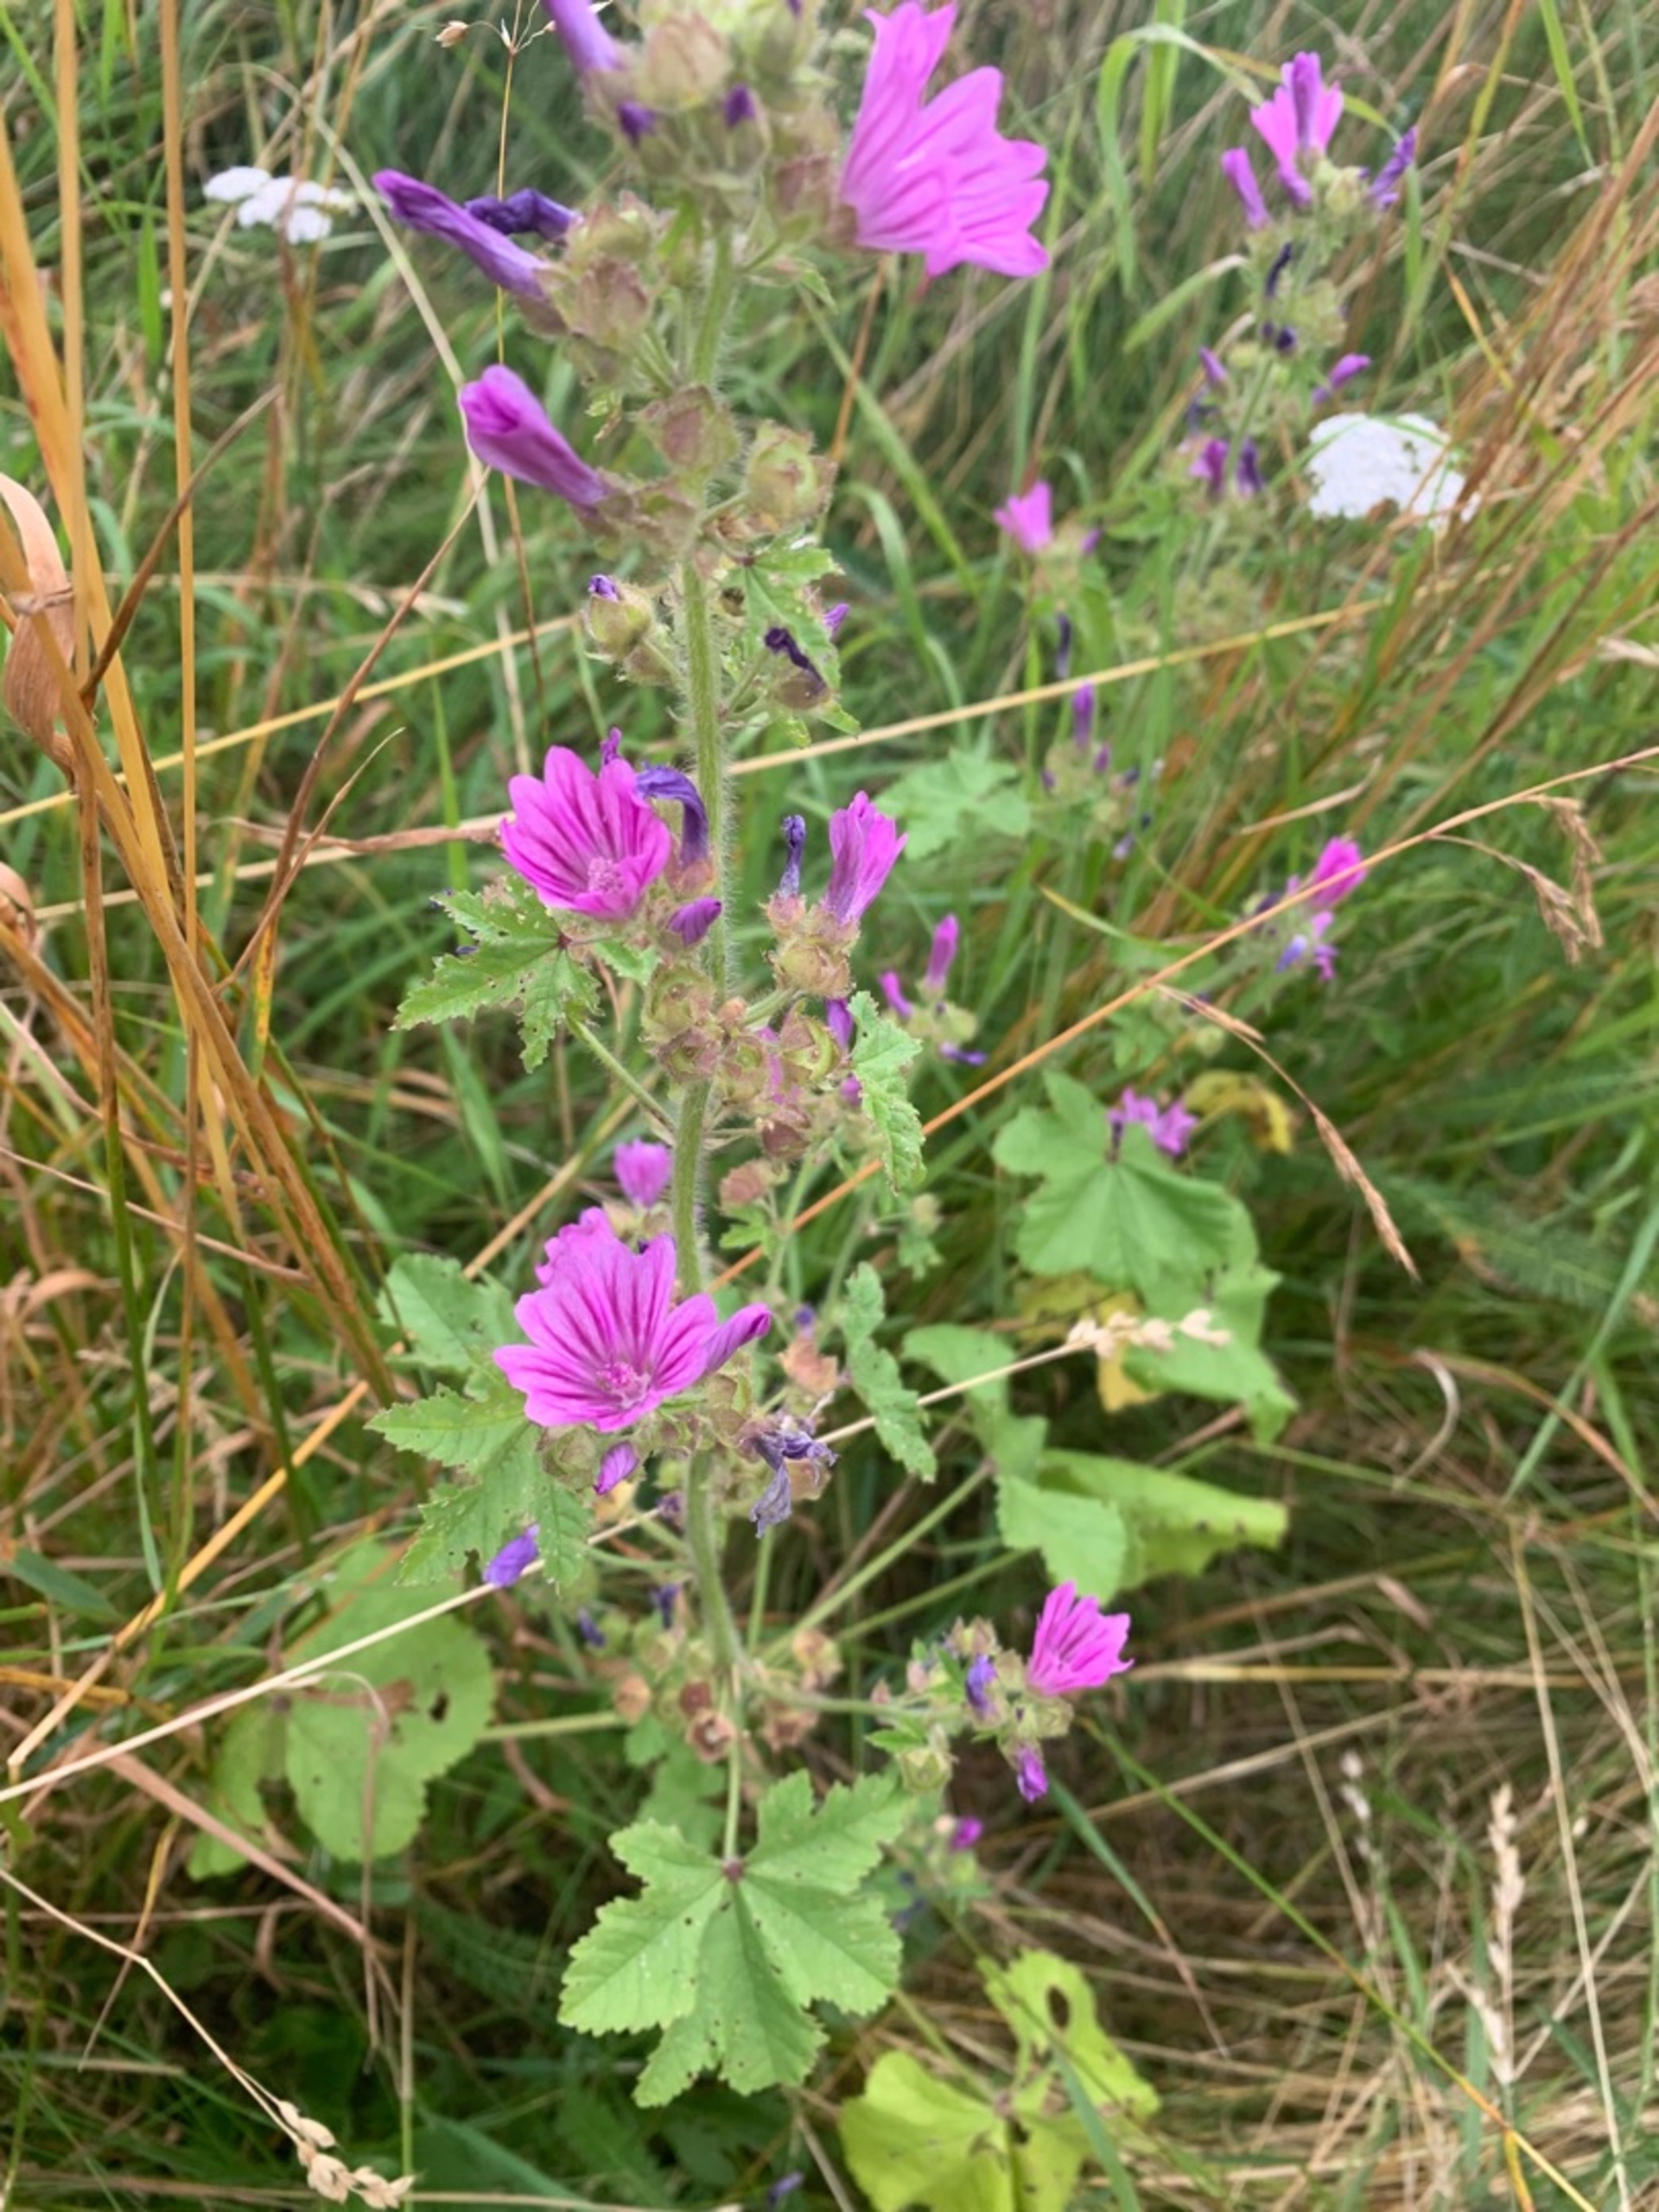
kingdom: Plantae
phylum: Tracheophyta
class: Magnoliopsida
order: Malvales
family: Malvaceae
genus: Malva
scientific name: Malva sylvestris
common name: Almindelig katost
